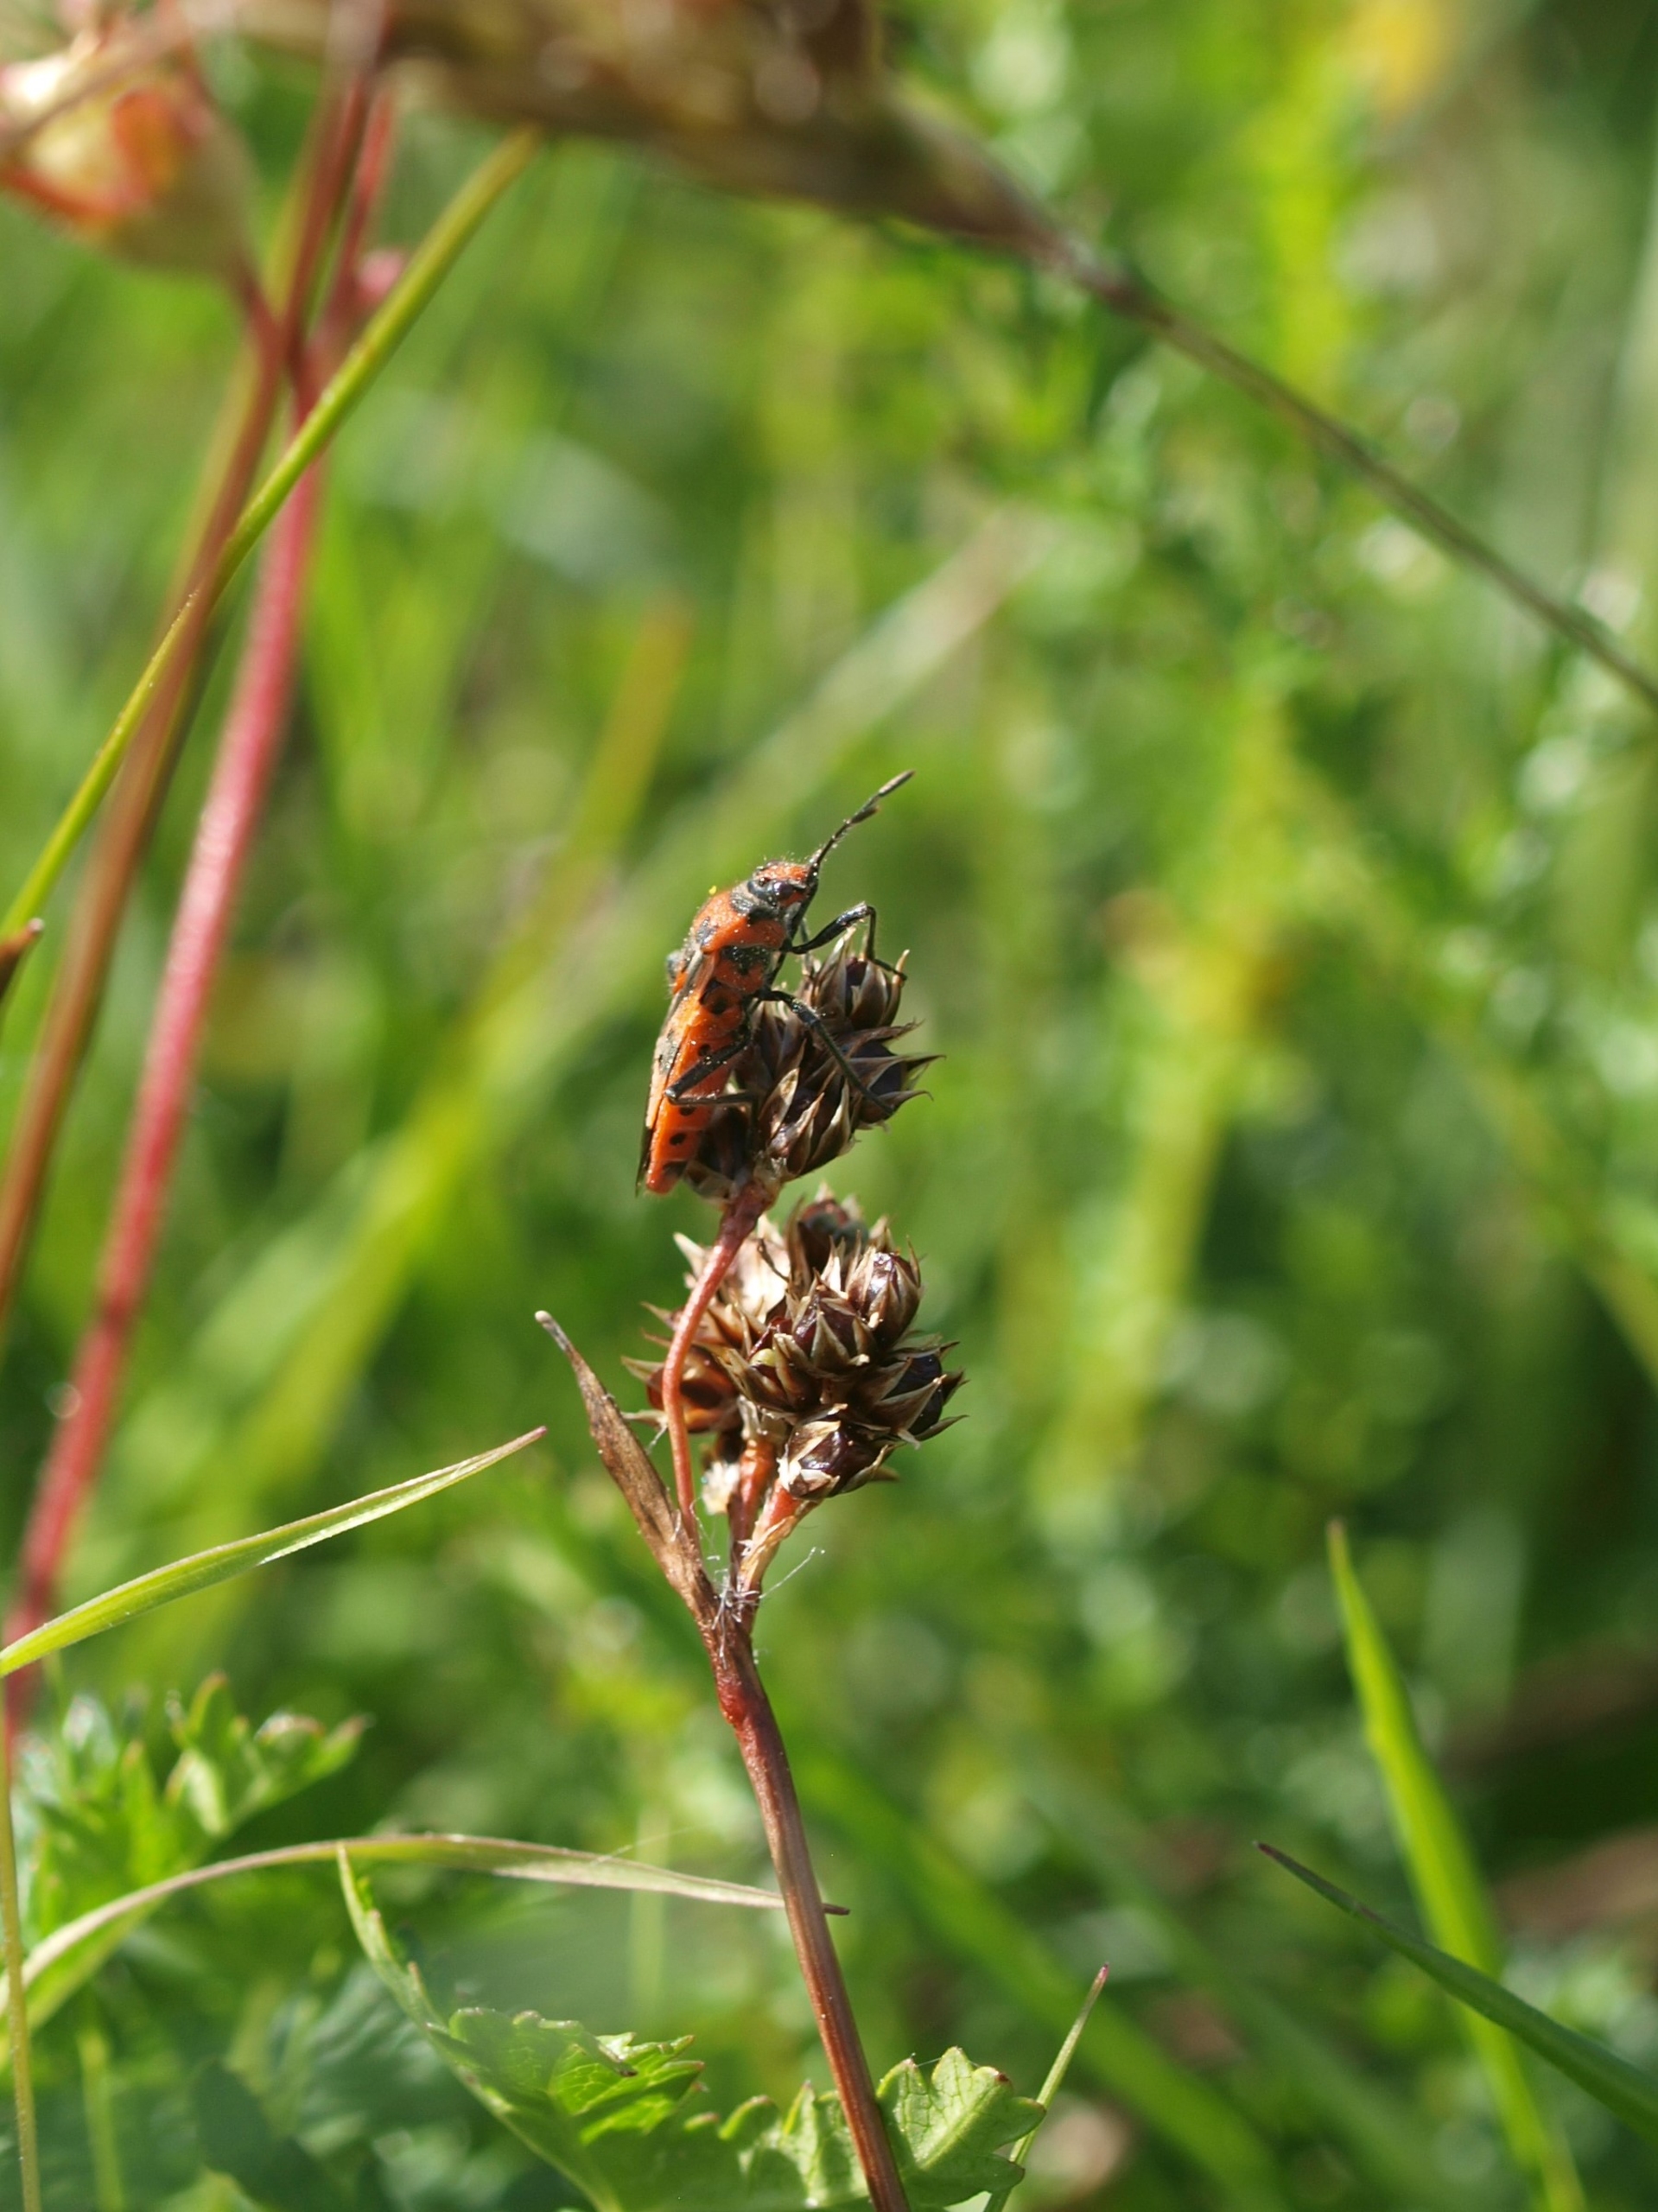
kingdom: Animalia
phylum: Arthropoda
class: Insecta
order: Hemiptera
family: Rhopalidae
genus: Corizus
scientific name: Corizus hyoscyami
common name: Rød kanttæge
